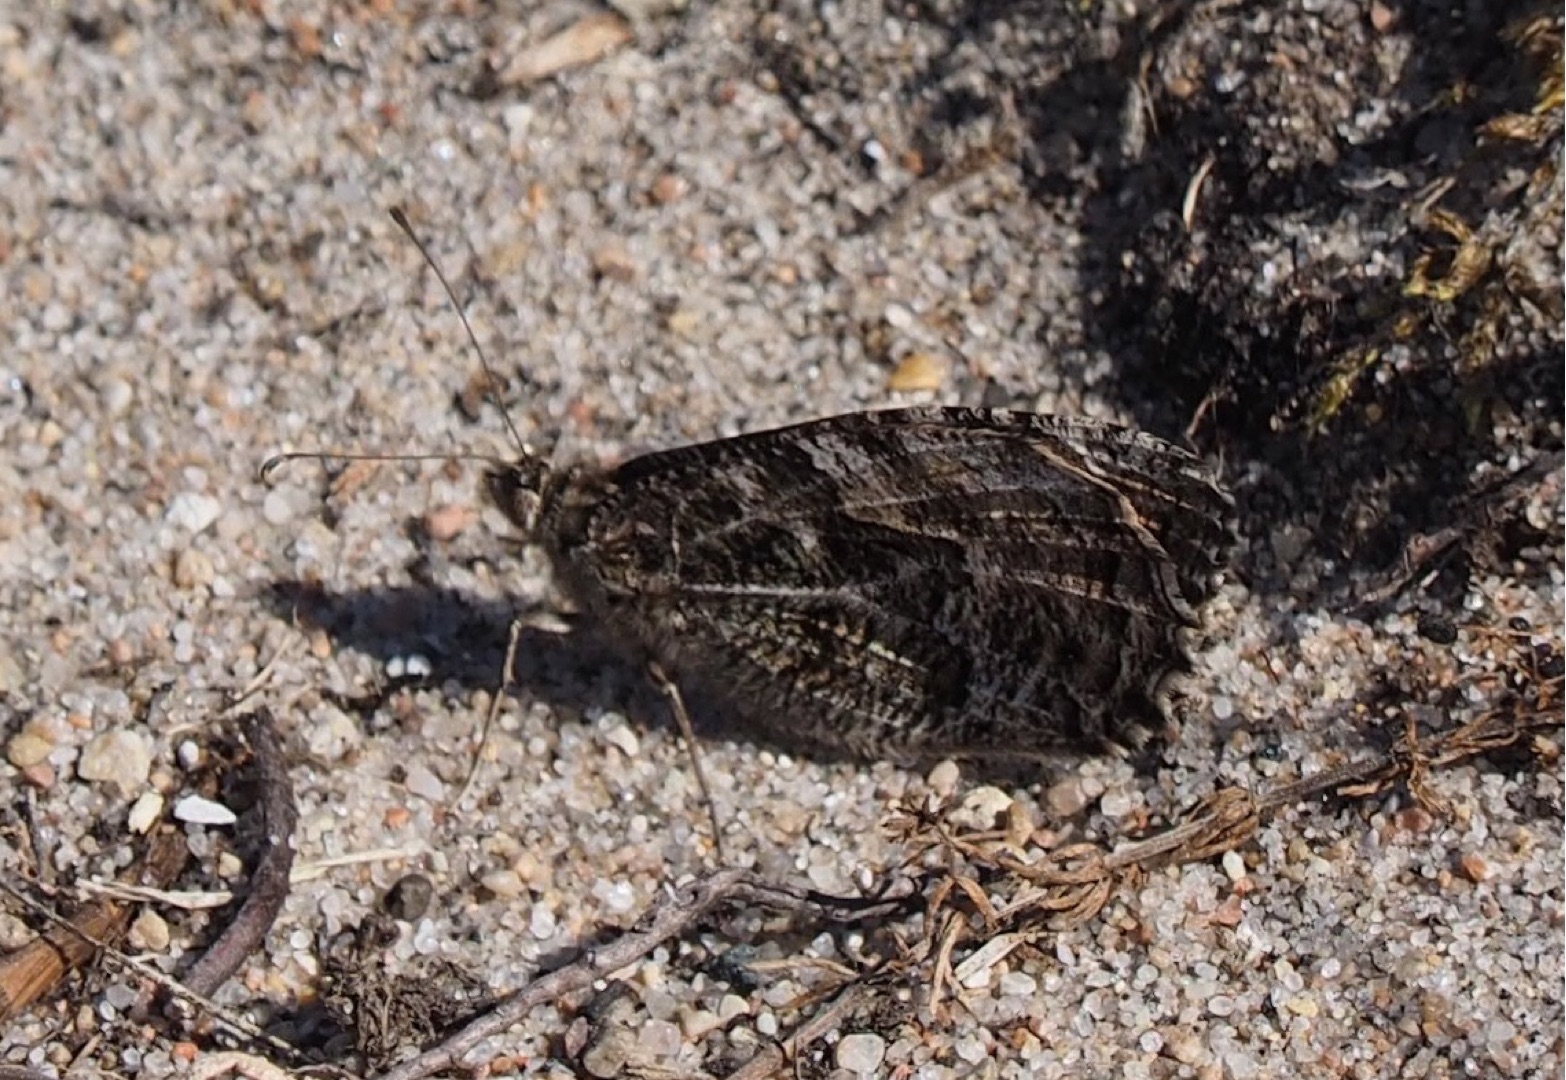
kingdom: Animalia
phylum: Arthropoda
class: Insecta
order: Lepidoptera
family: Nymphalidae
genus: Hipparchia
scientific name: Hipparchia semele
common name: Sandrandøje
